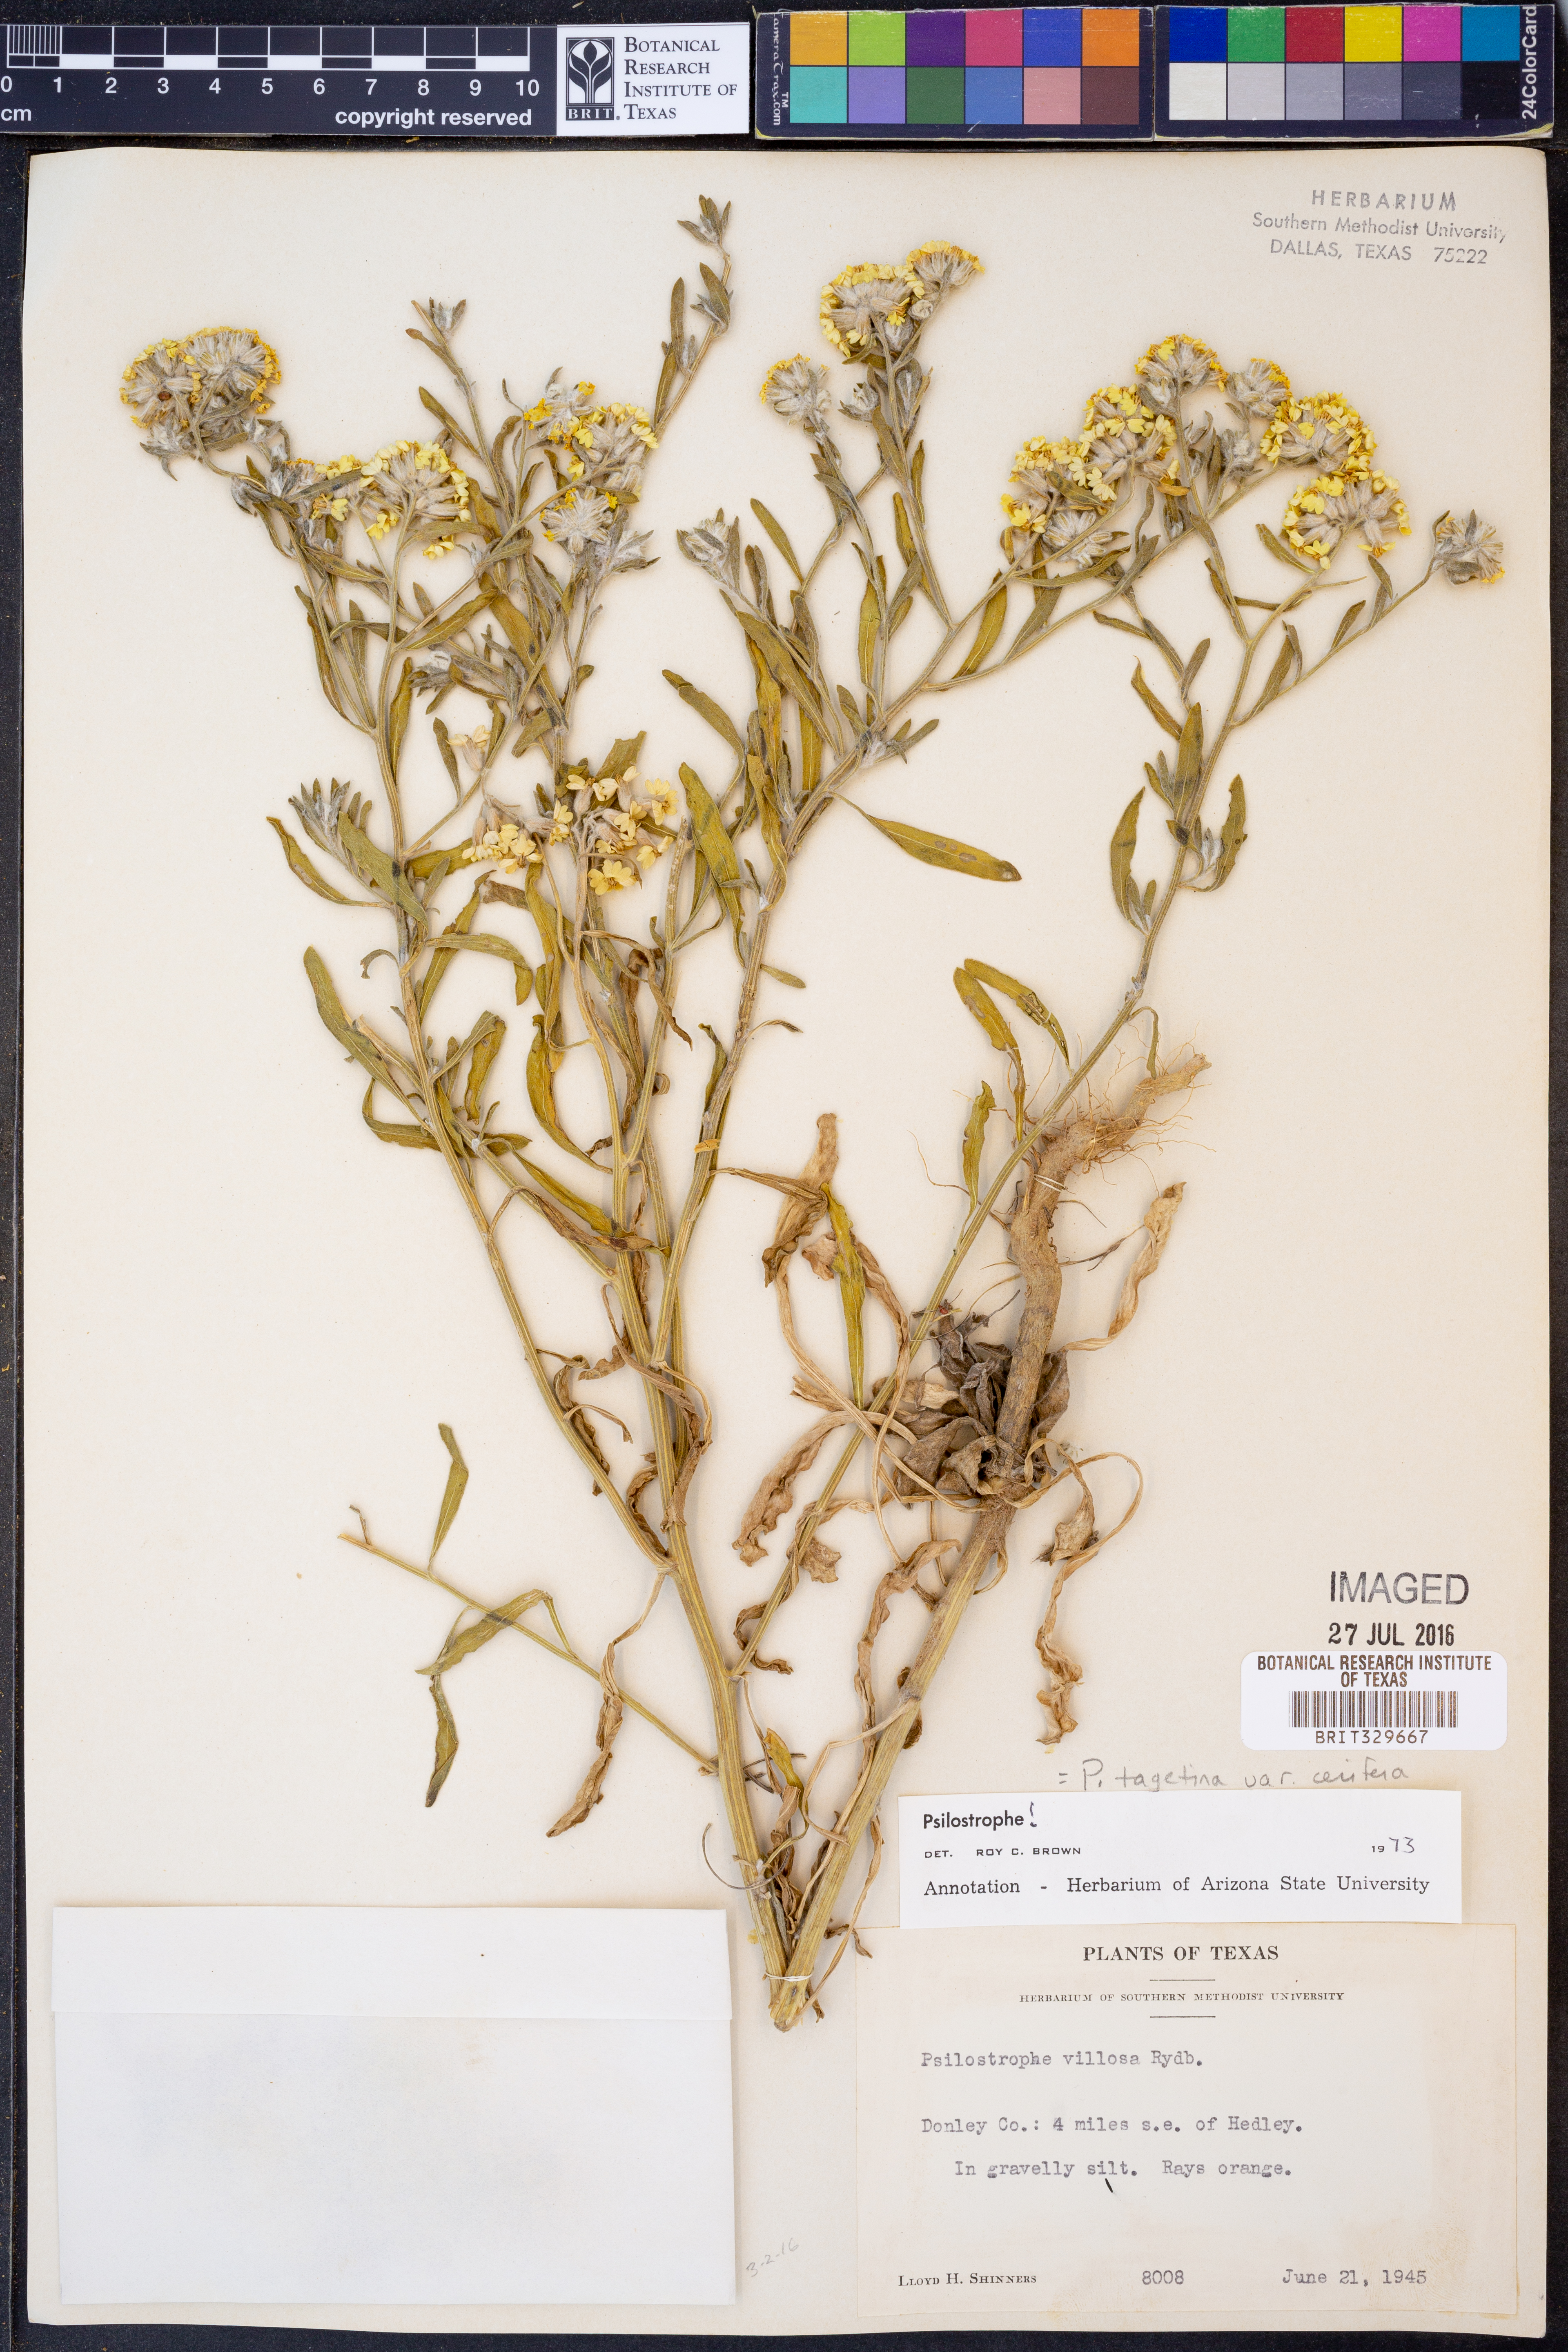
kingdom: Plantae
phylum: Tracheophyta
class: Magnoliopsida
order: Asterales
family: Asteraceae
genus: Psilostrophe
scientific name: Psilostrophe villosa
